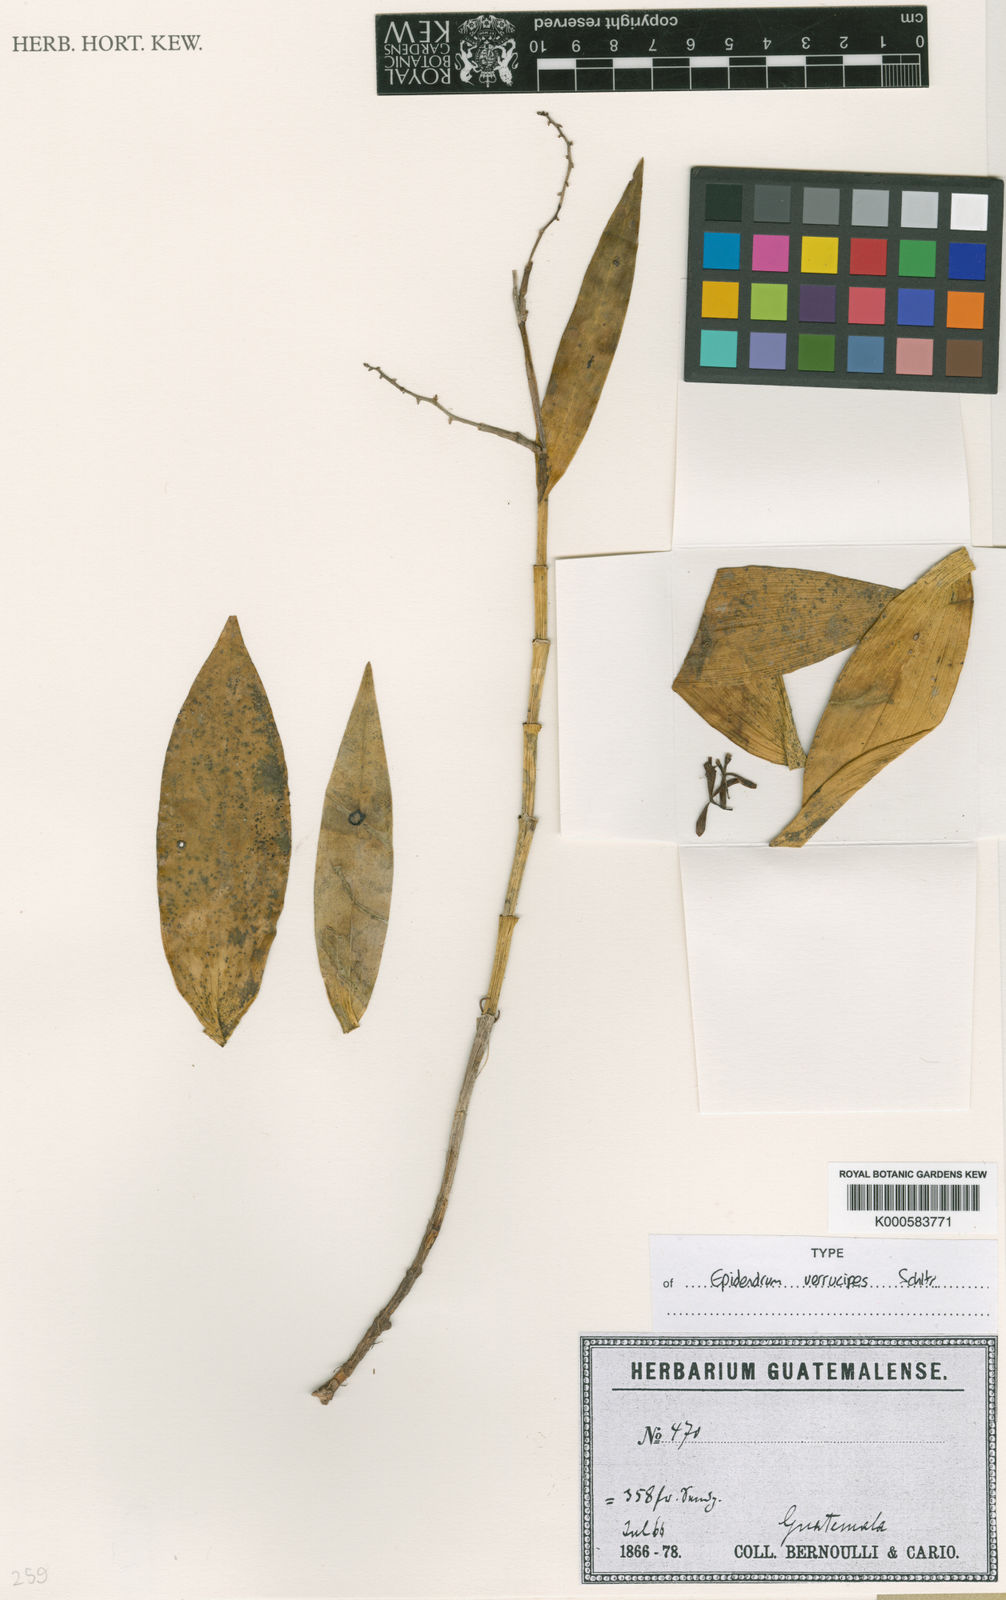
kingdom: Plantae
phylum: Tracheophyta
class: Liliopsida
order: Asparagales
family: Orchidaceae
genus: Epidendrum
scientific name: Epidendrum polyanthum
